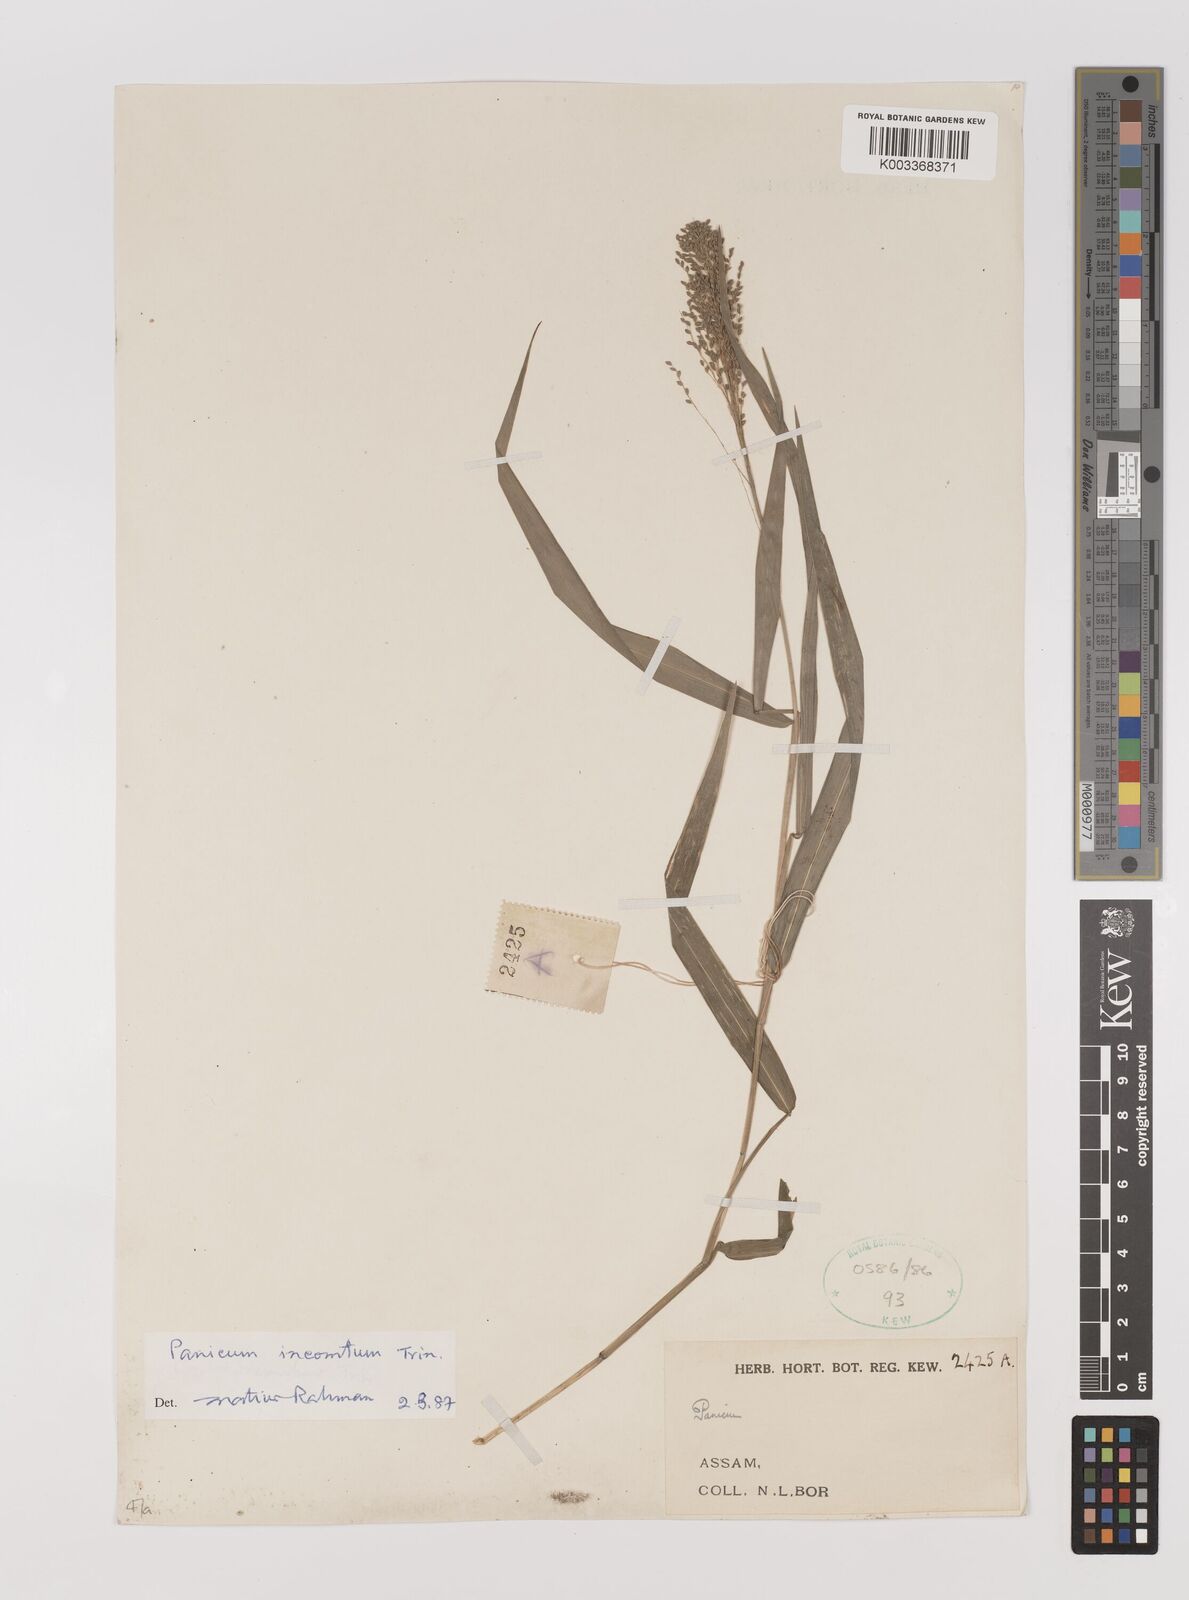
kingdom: Plantae
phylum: Tracheophyta
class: Liliopsida
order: Poales
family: Poaceae
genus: Panicum
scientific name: Panicum sarmentosum
